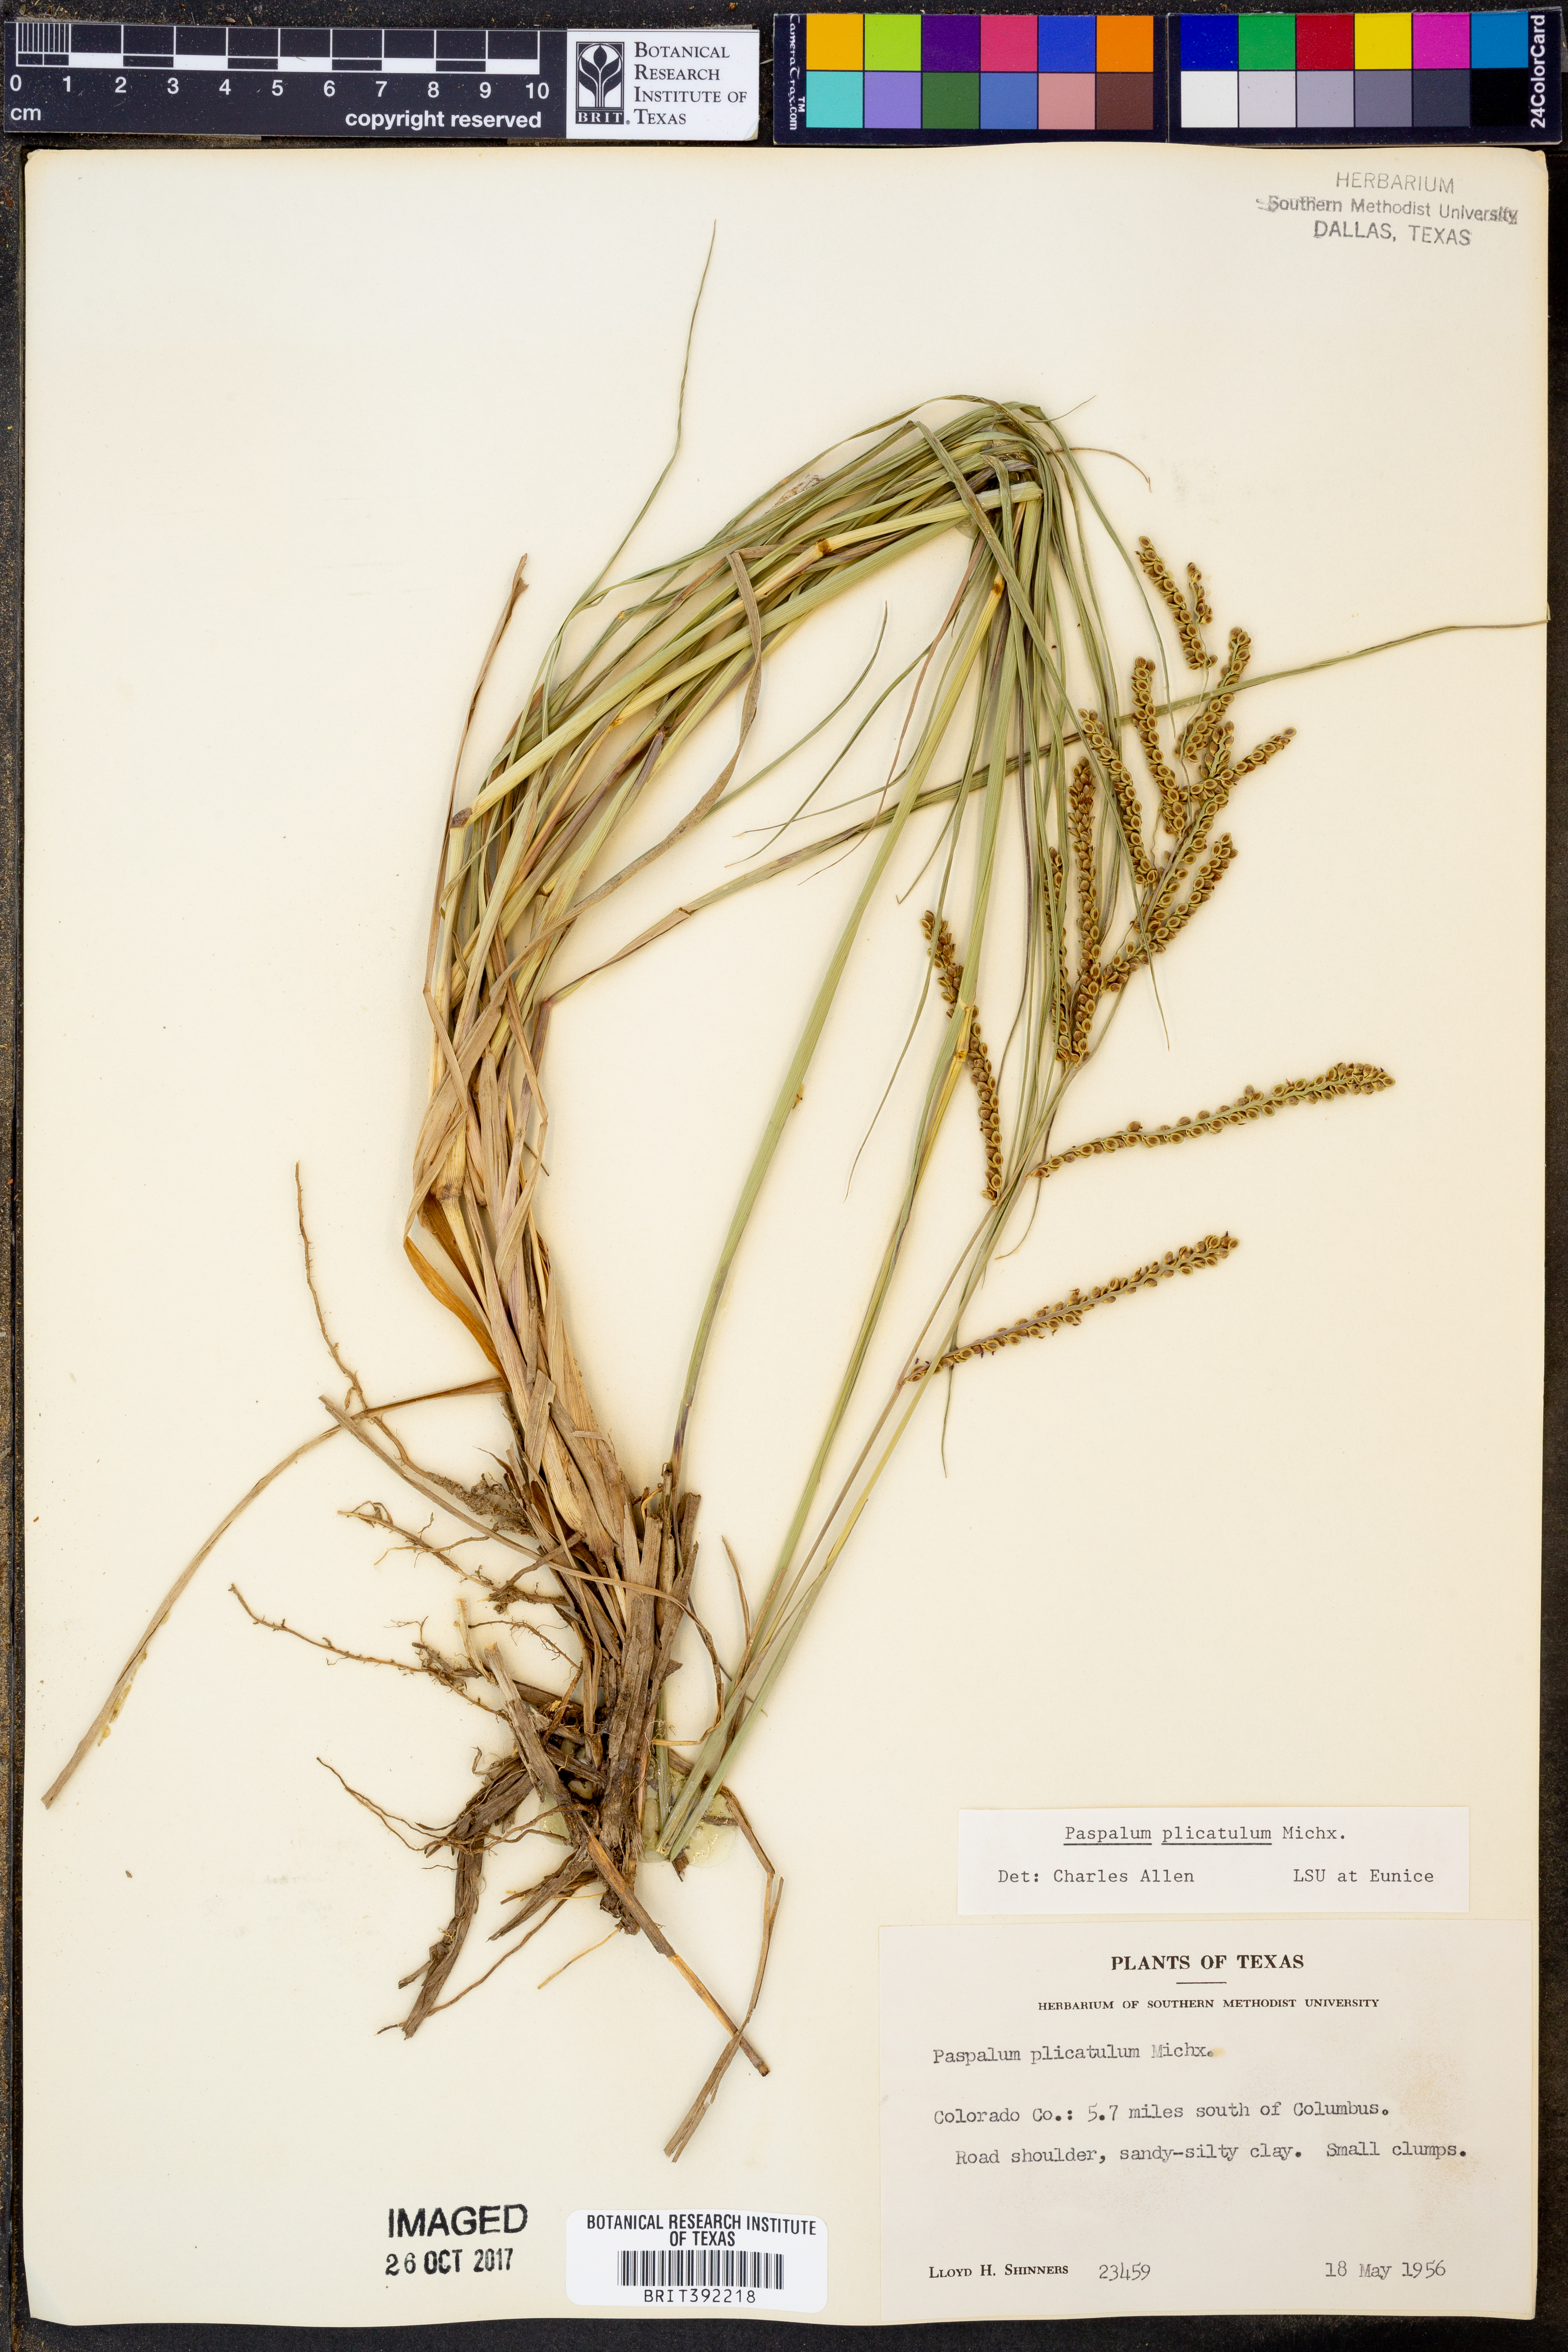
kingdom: Plantae
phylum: Tracheophyta
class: Liliopsida
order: Poales
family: Poaceae
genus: Paspalum
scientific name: Paspalum plicatulum
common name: Top paspalum
